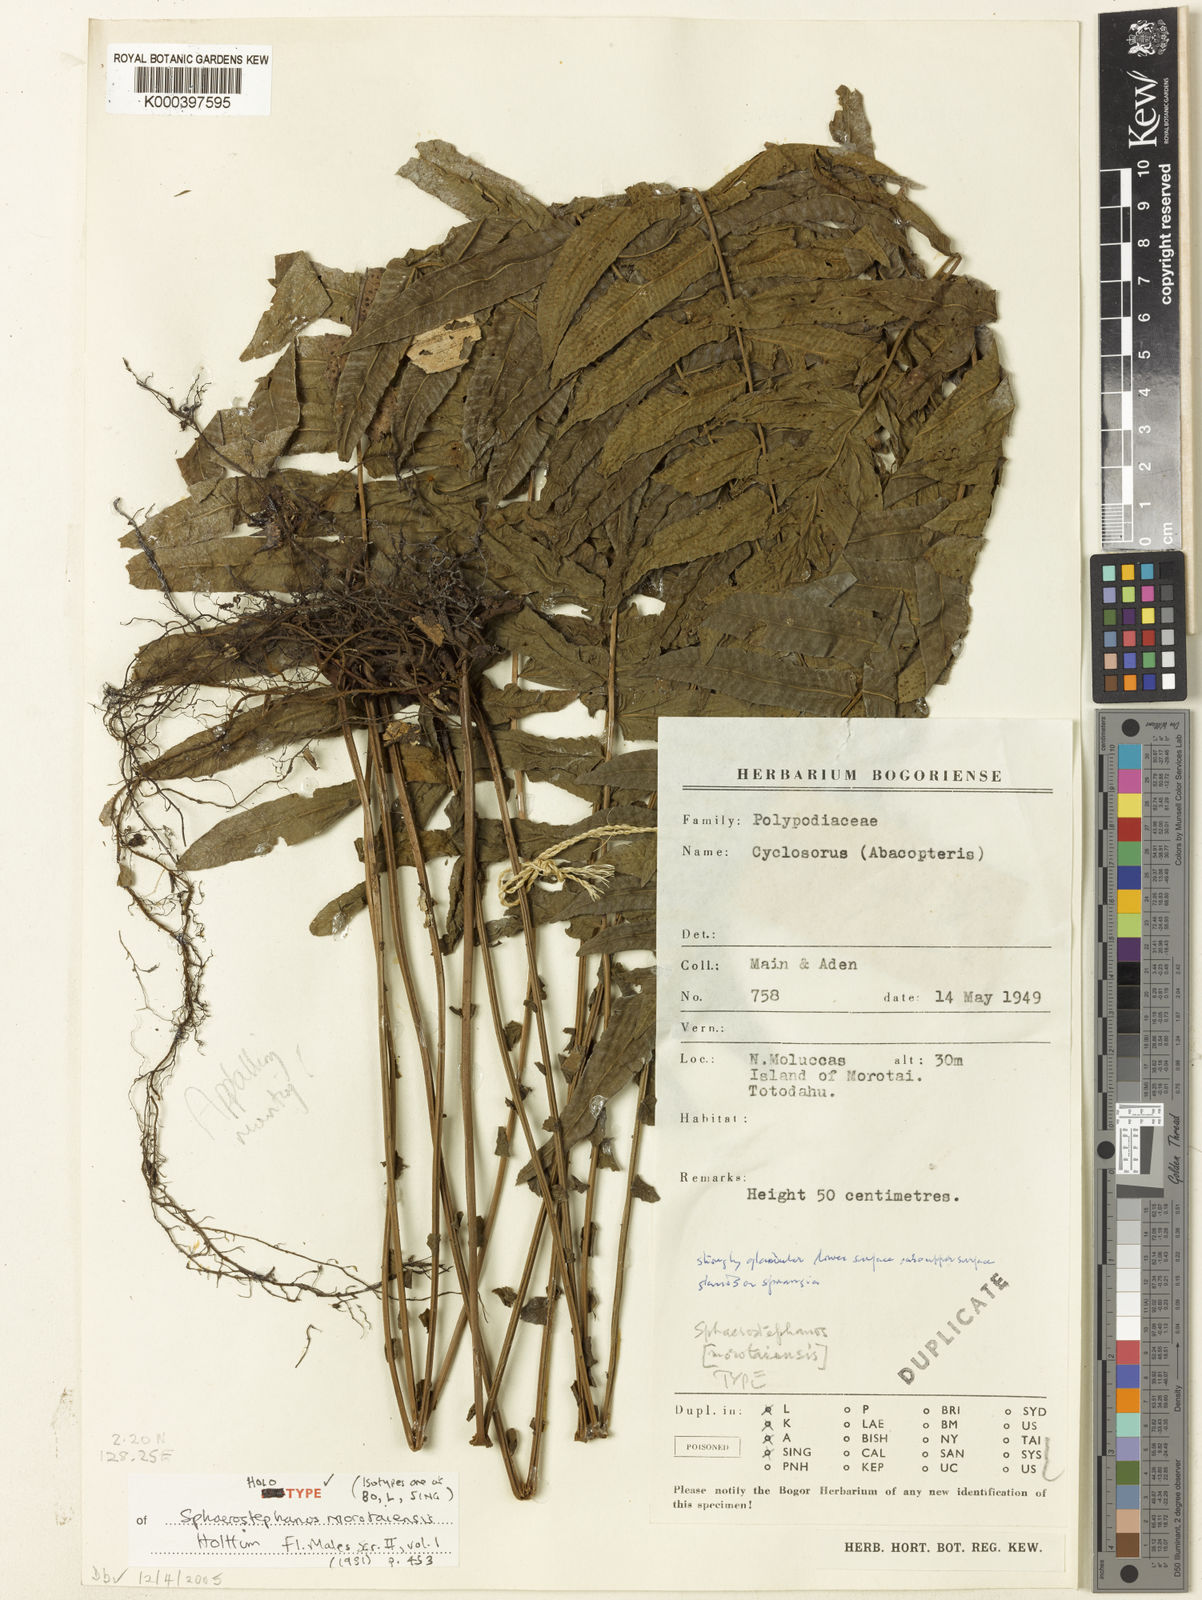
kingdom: Plantae
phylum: Tracheophyta
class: Polypodiopsida
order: Polypodiales
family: Thelypteridaceae
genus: Sphaerostephanos
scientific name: Sphaerostephanos morotaiensis
